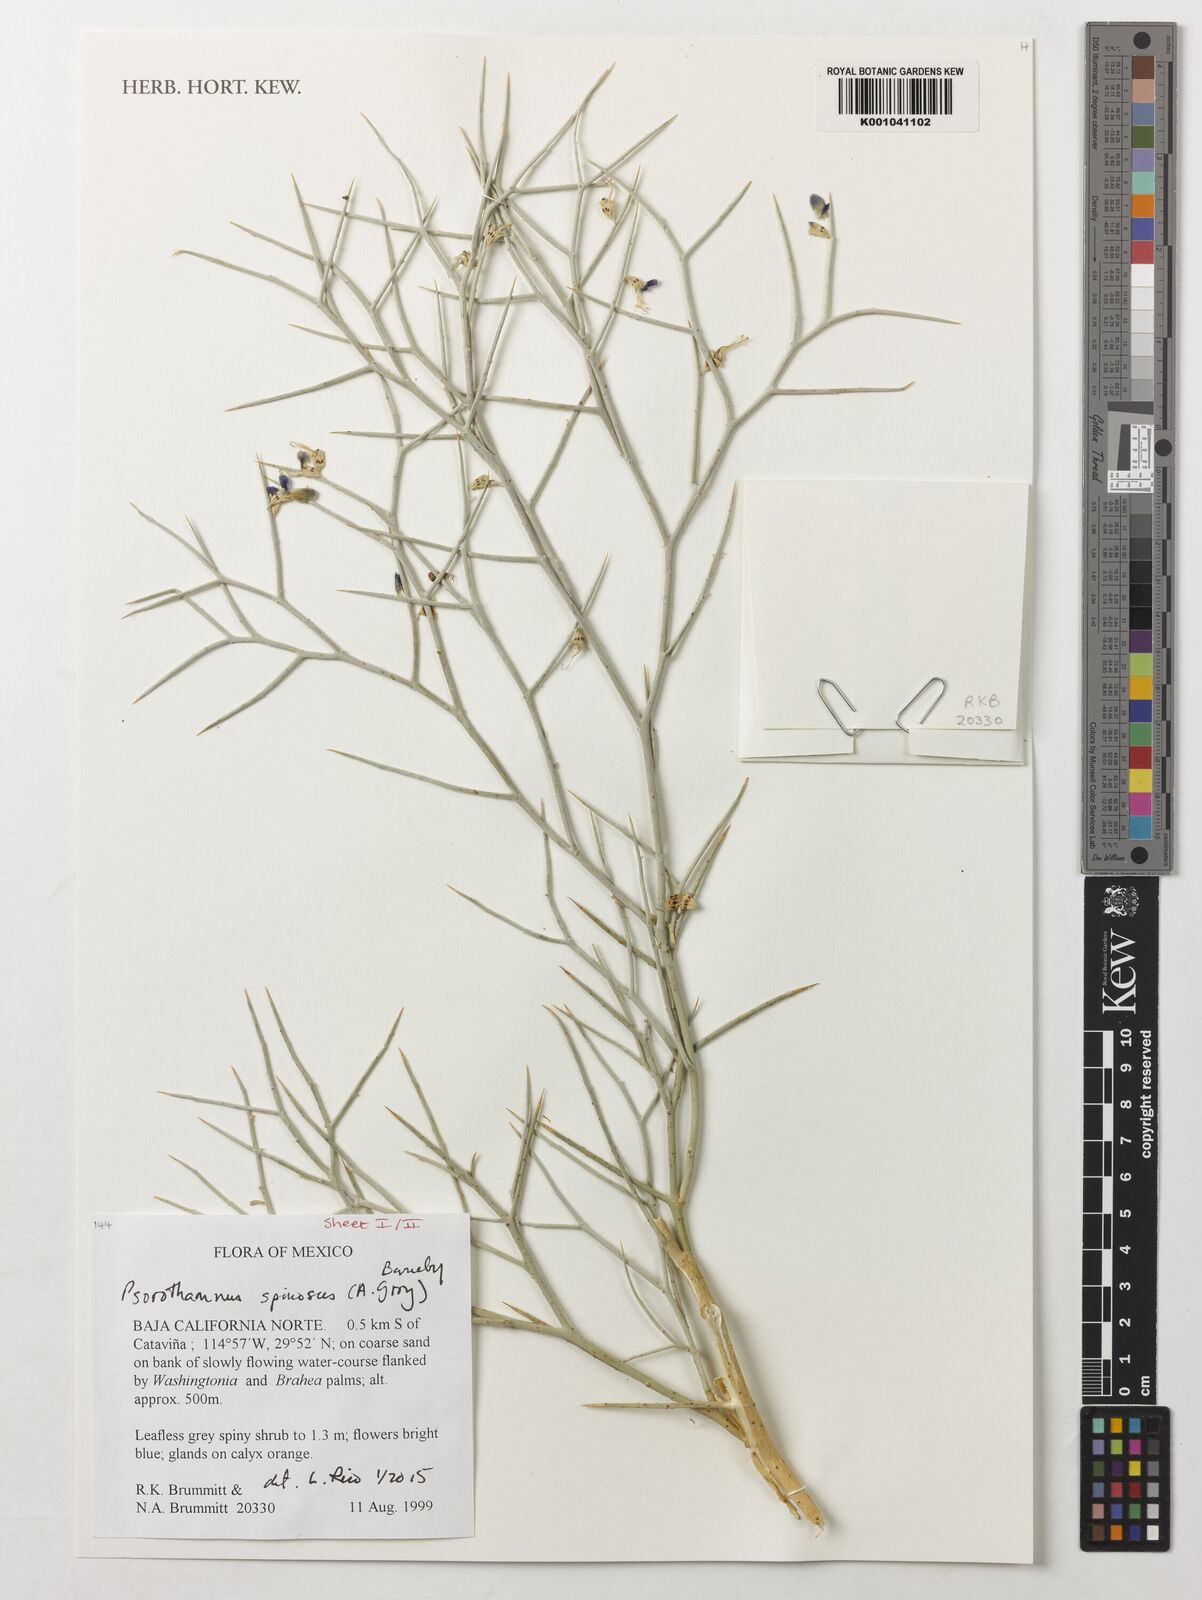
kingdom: Plantae
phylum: Tracheophyta
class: Magnoliopsida
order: Fabales
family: Fabaceae
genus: Psorothamnus
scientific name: Psorothamnus spinosus
